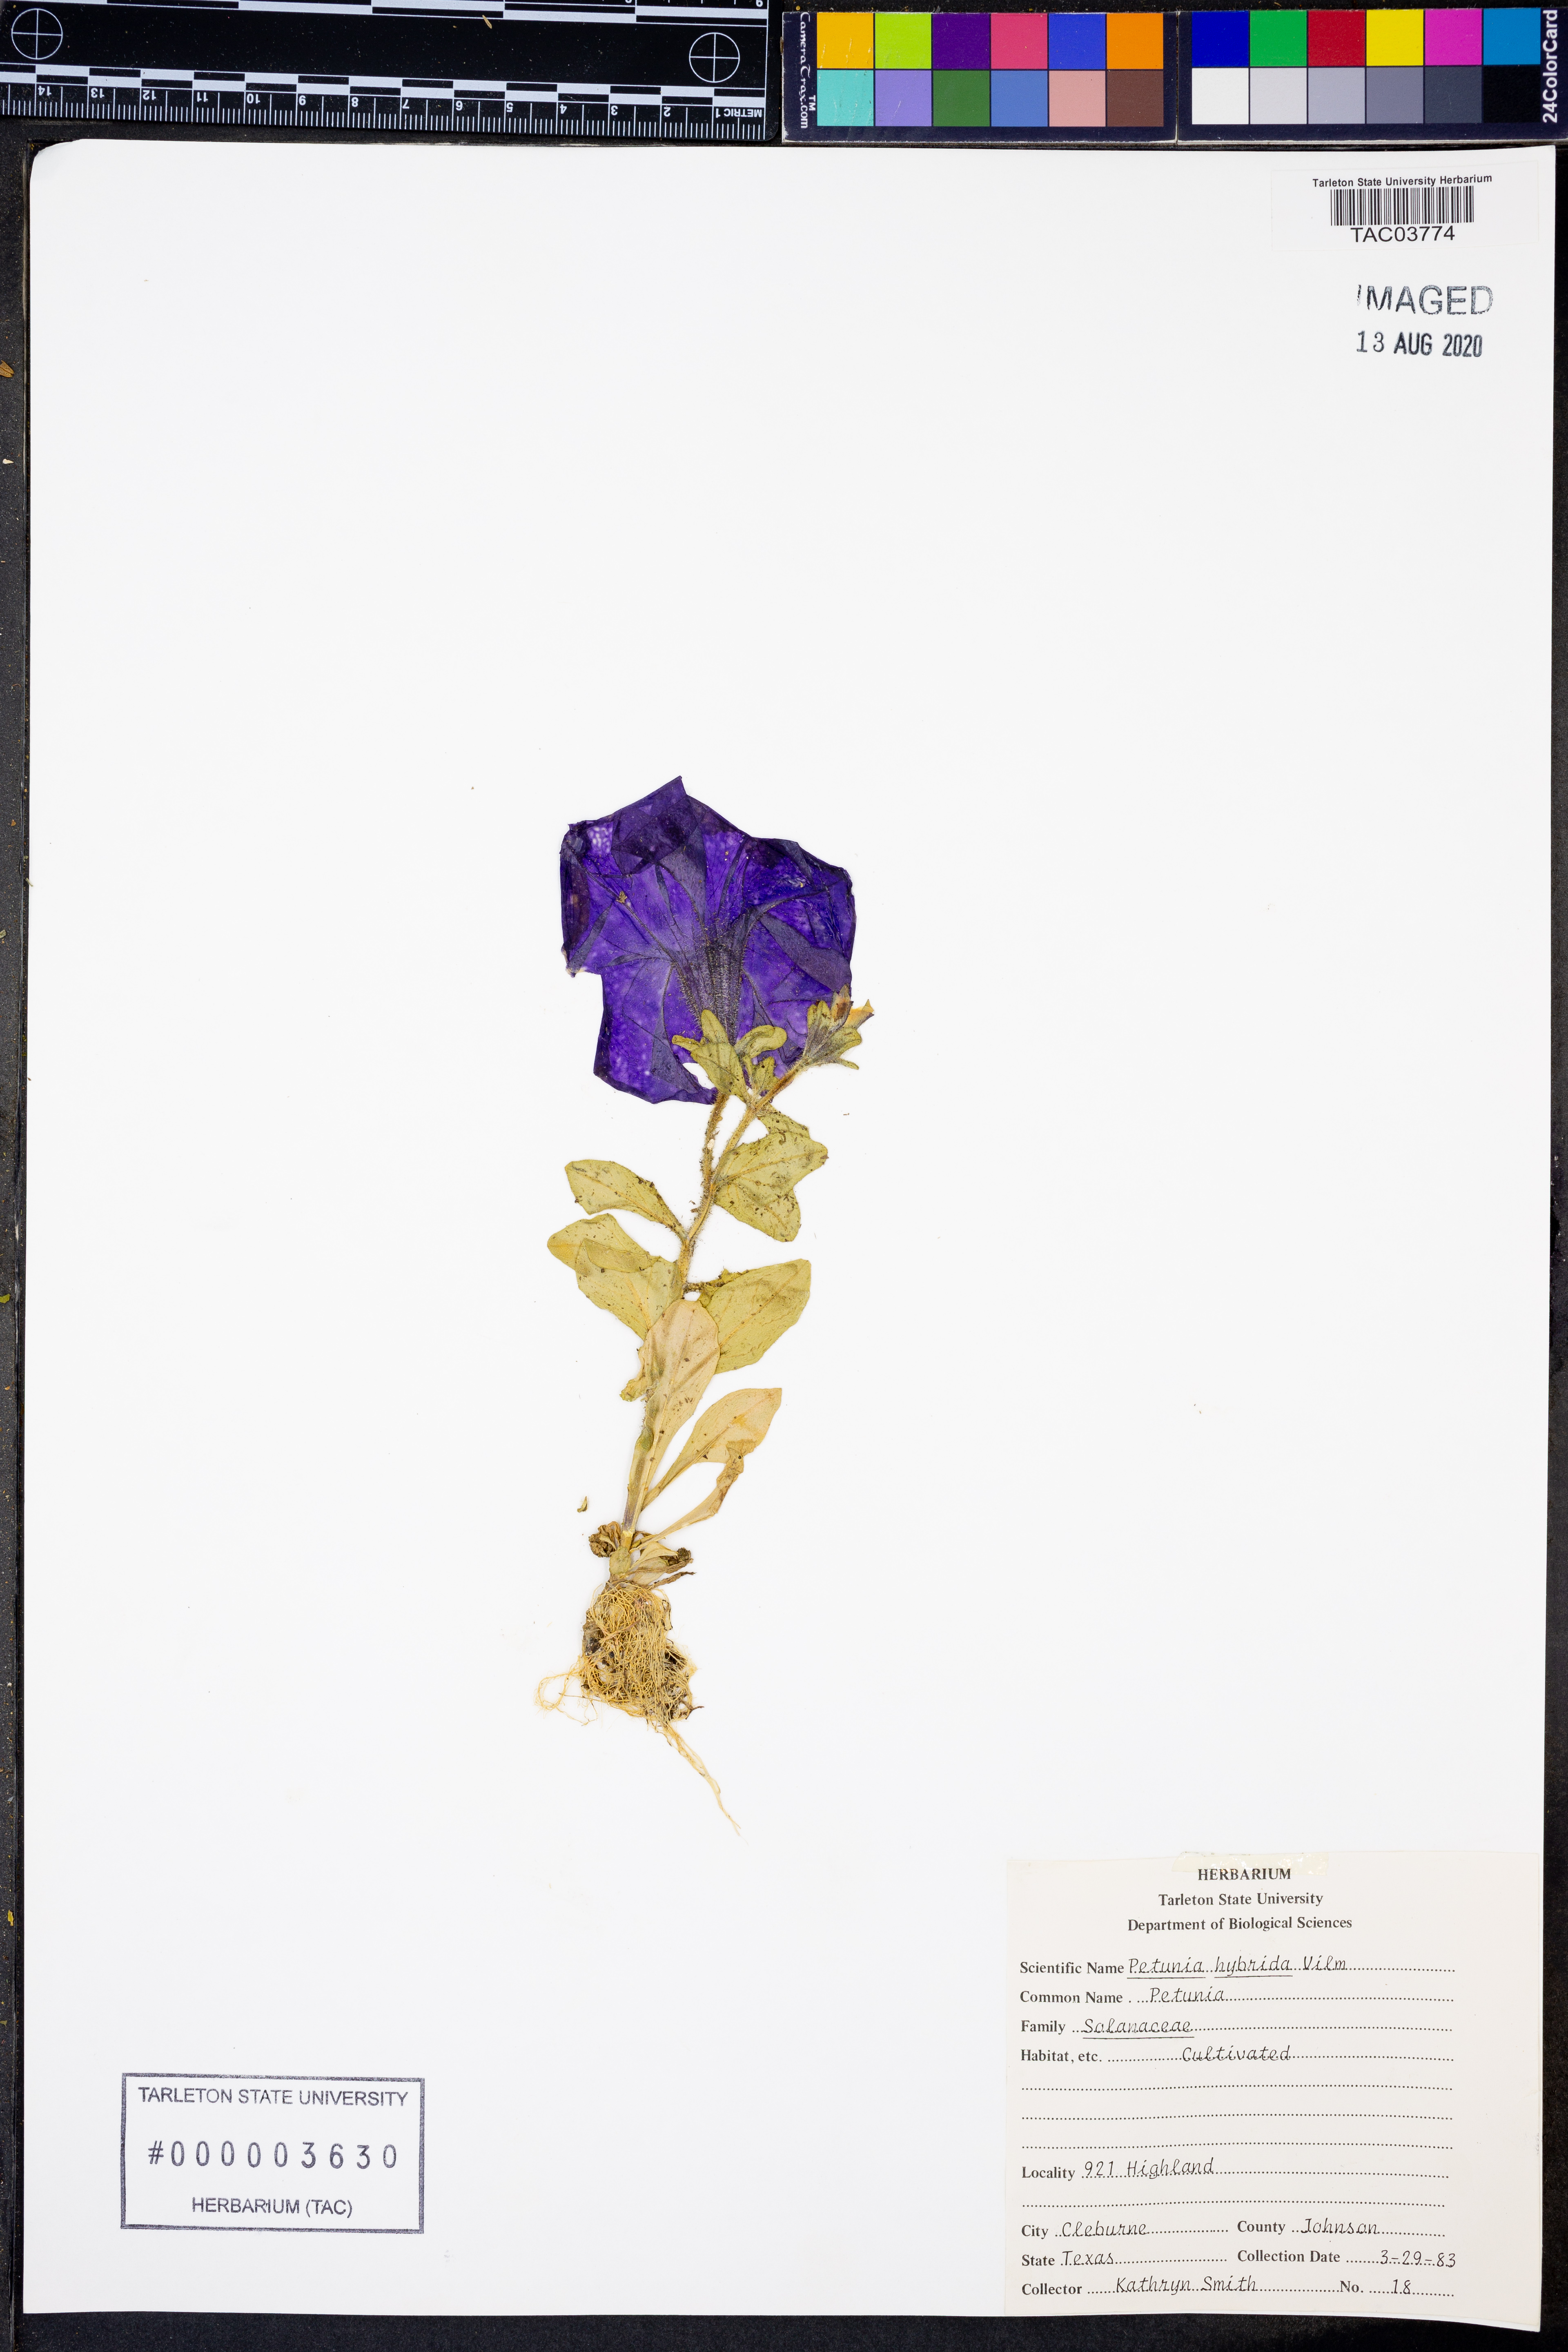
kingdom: Plantae
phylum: Tracheophyta
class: Magnoliopsida
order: Solanales
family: Solanaceae
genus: Petunia
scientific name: Petunia atkinsiana
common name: Petunia
